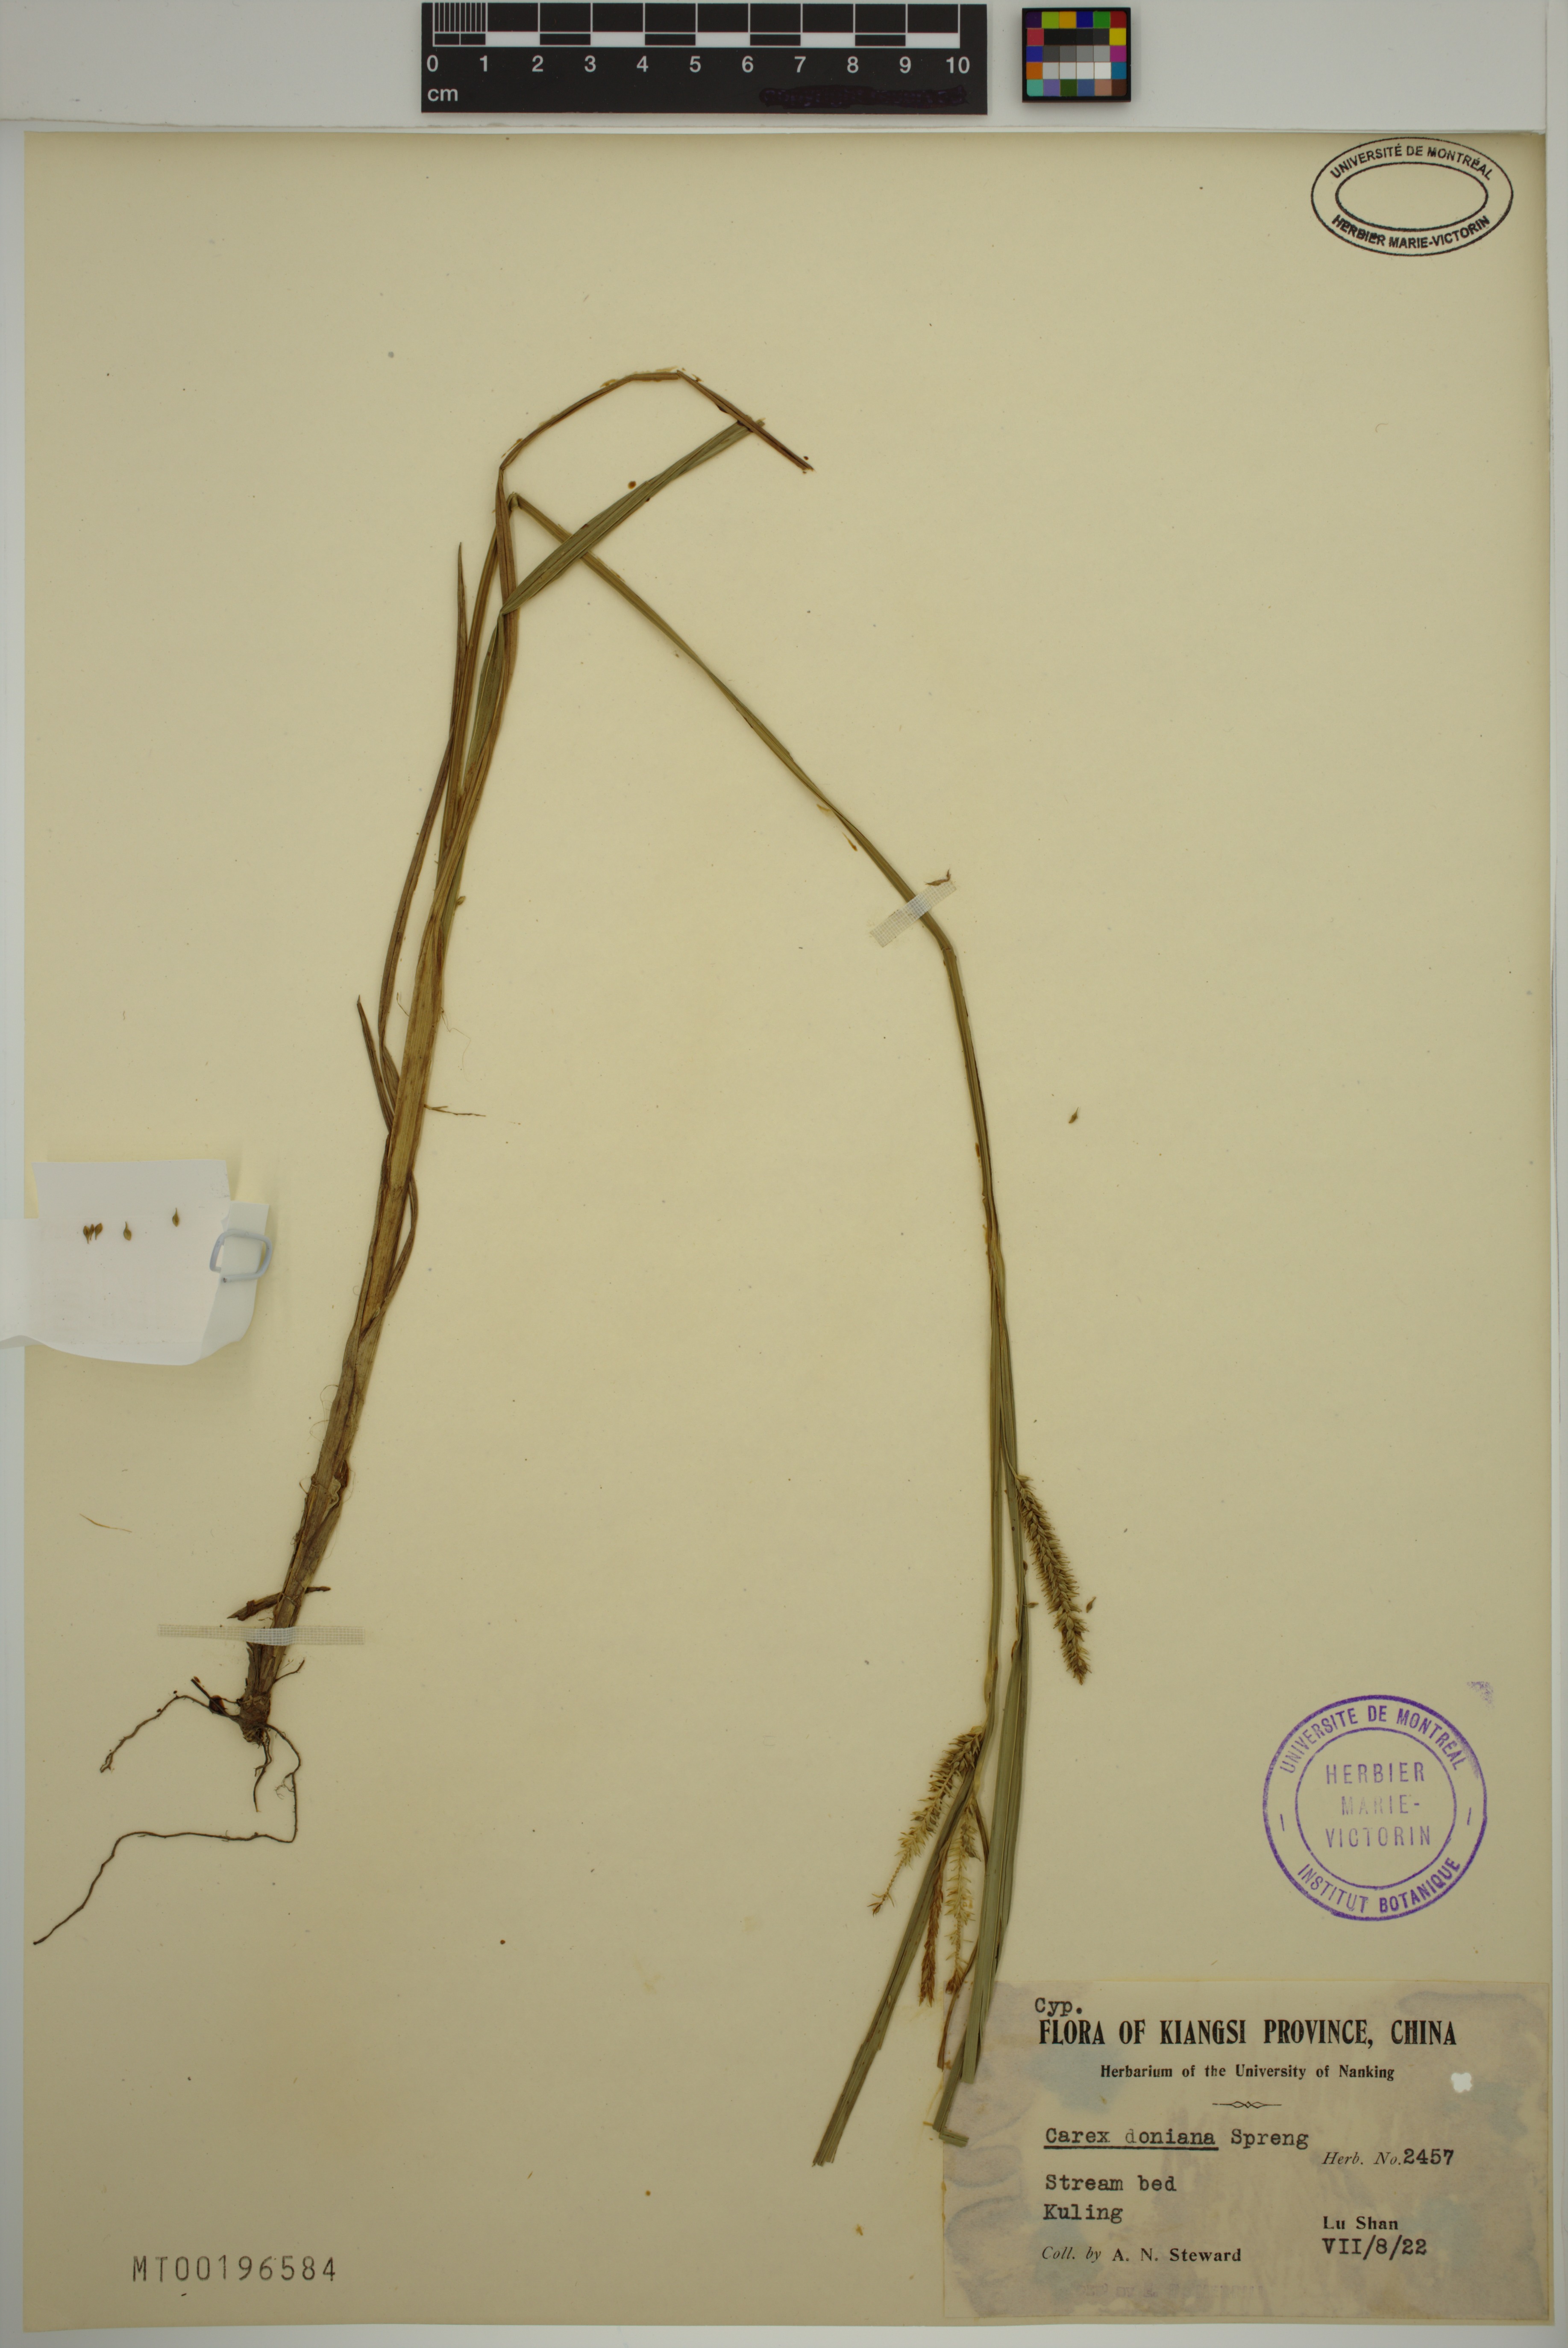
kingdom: Plantae
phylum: Tracheophyta
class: Liliopsida
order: Poales
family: Cyperaceae
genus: Carex
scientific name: Carex doniana
